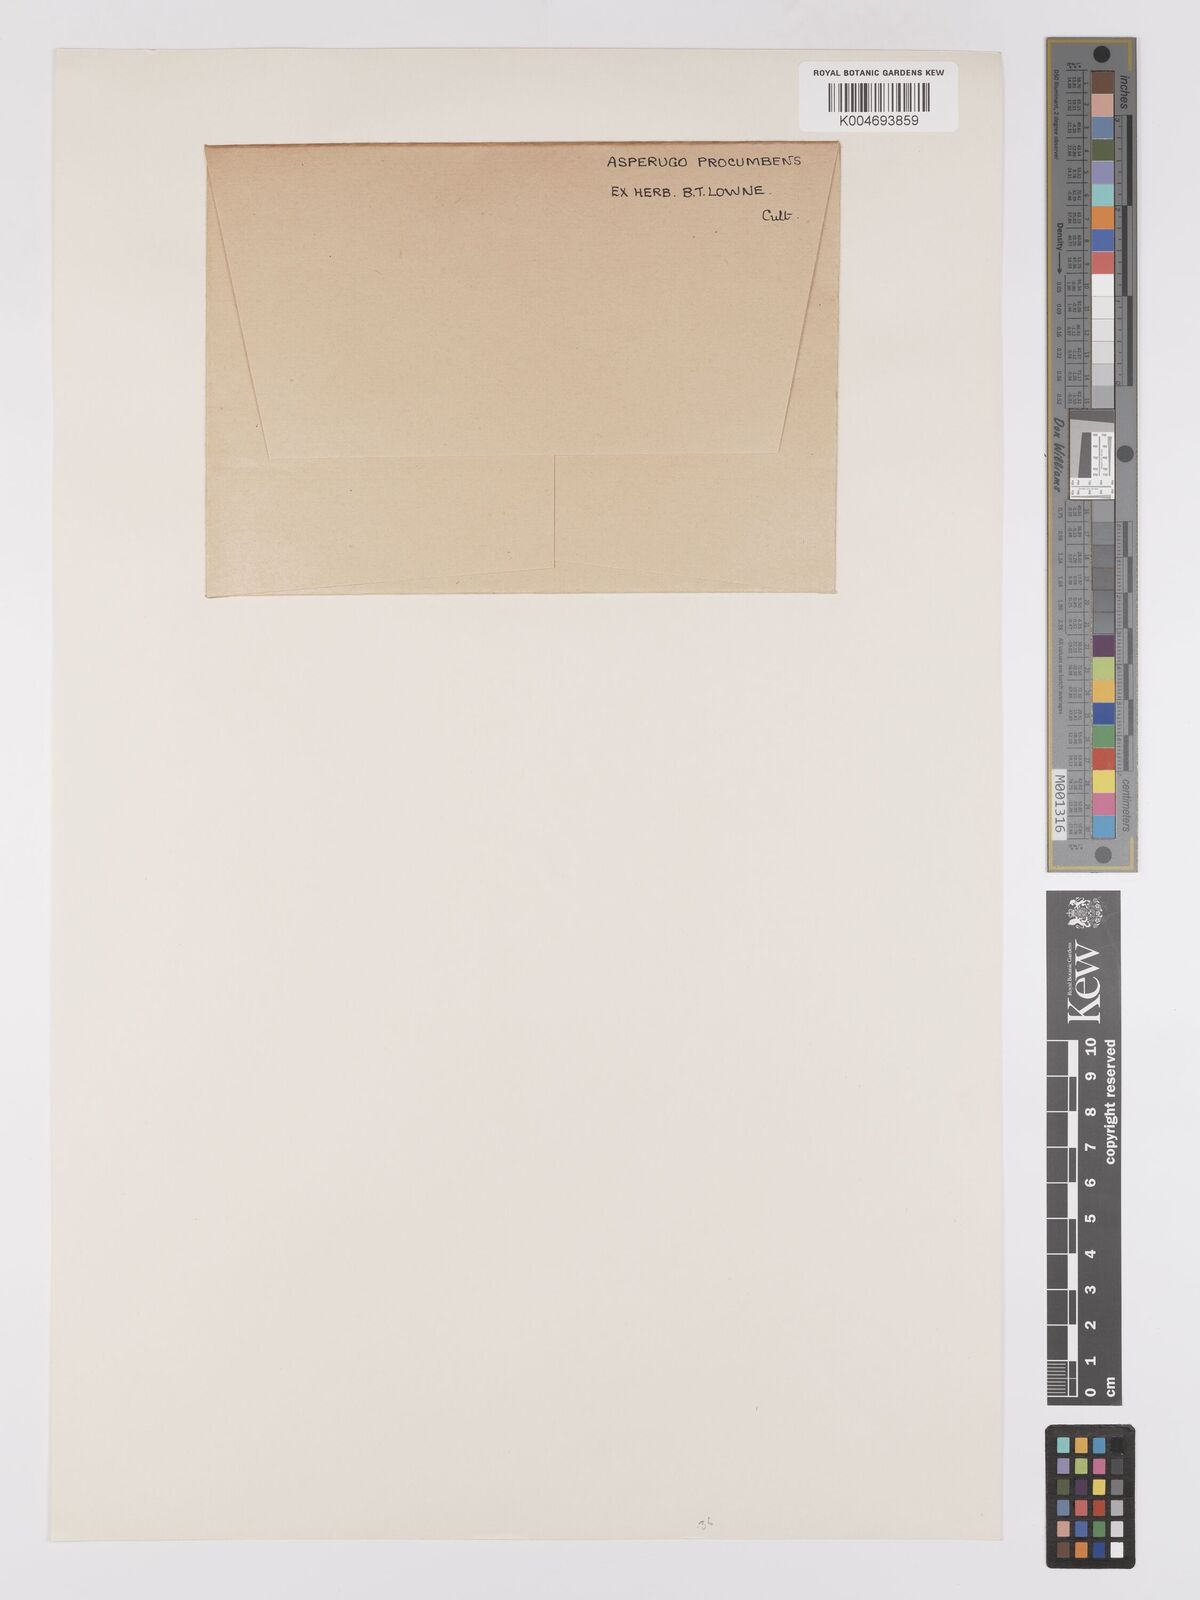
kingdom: Plantae
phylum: Tracheophyta
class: Magnoliopsida
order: Boraginales
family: Boraginaceae
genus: Asperugo
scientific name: Asperugo procumbens
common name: Madwort
